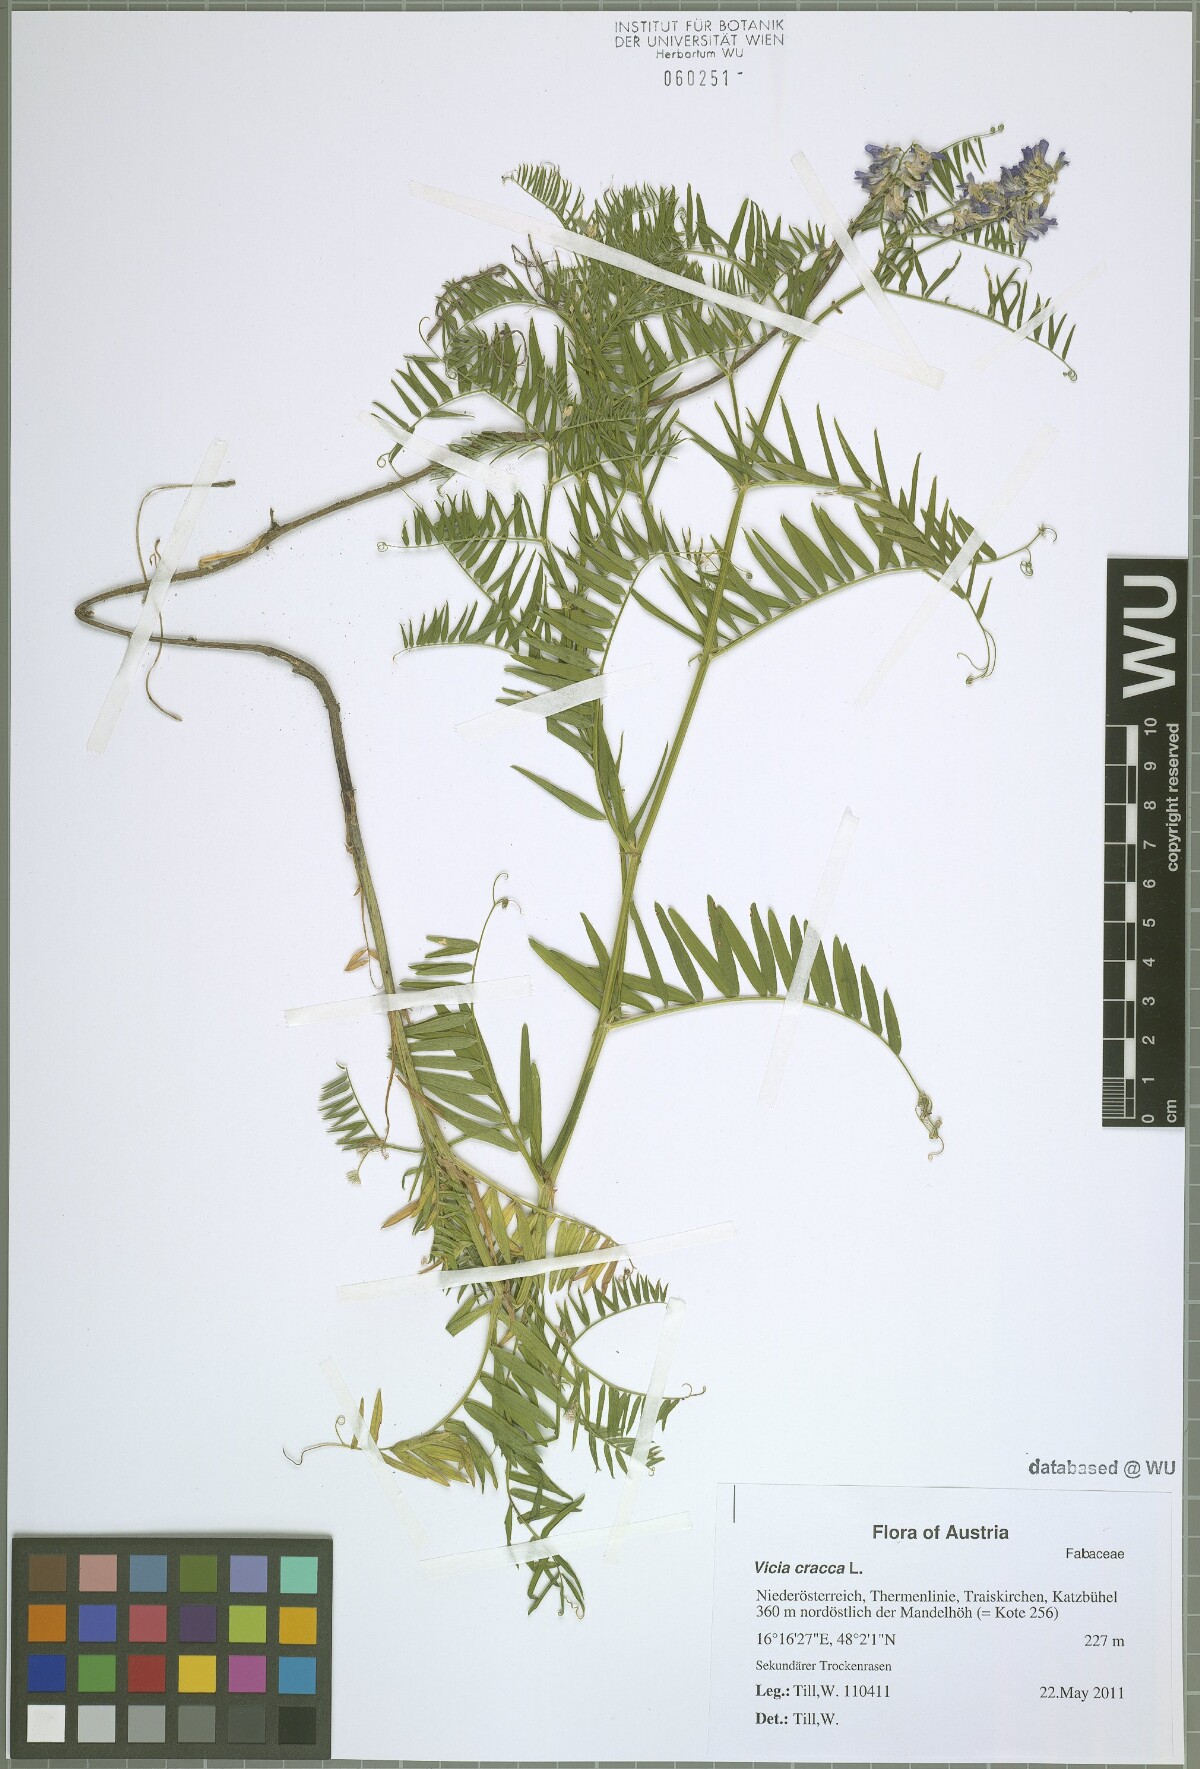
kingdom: Plantae
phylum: Tracheophyta
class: Magnoliopsida
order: Fabales
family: Fabaceae
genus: Vicia
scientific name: Vicia cracca
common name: Bird vetch
